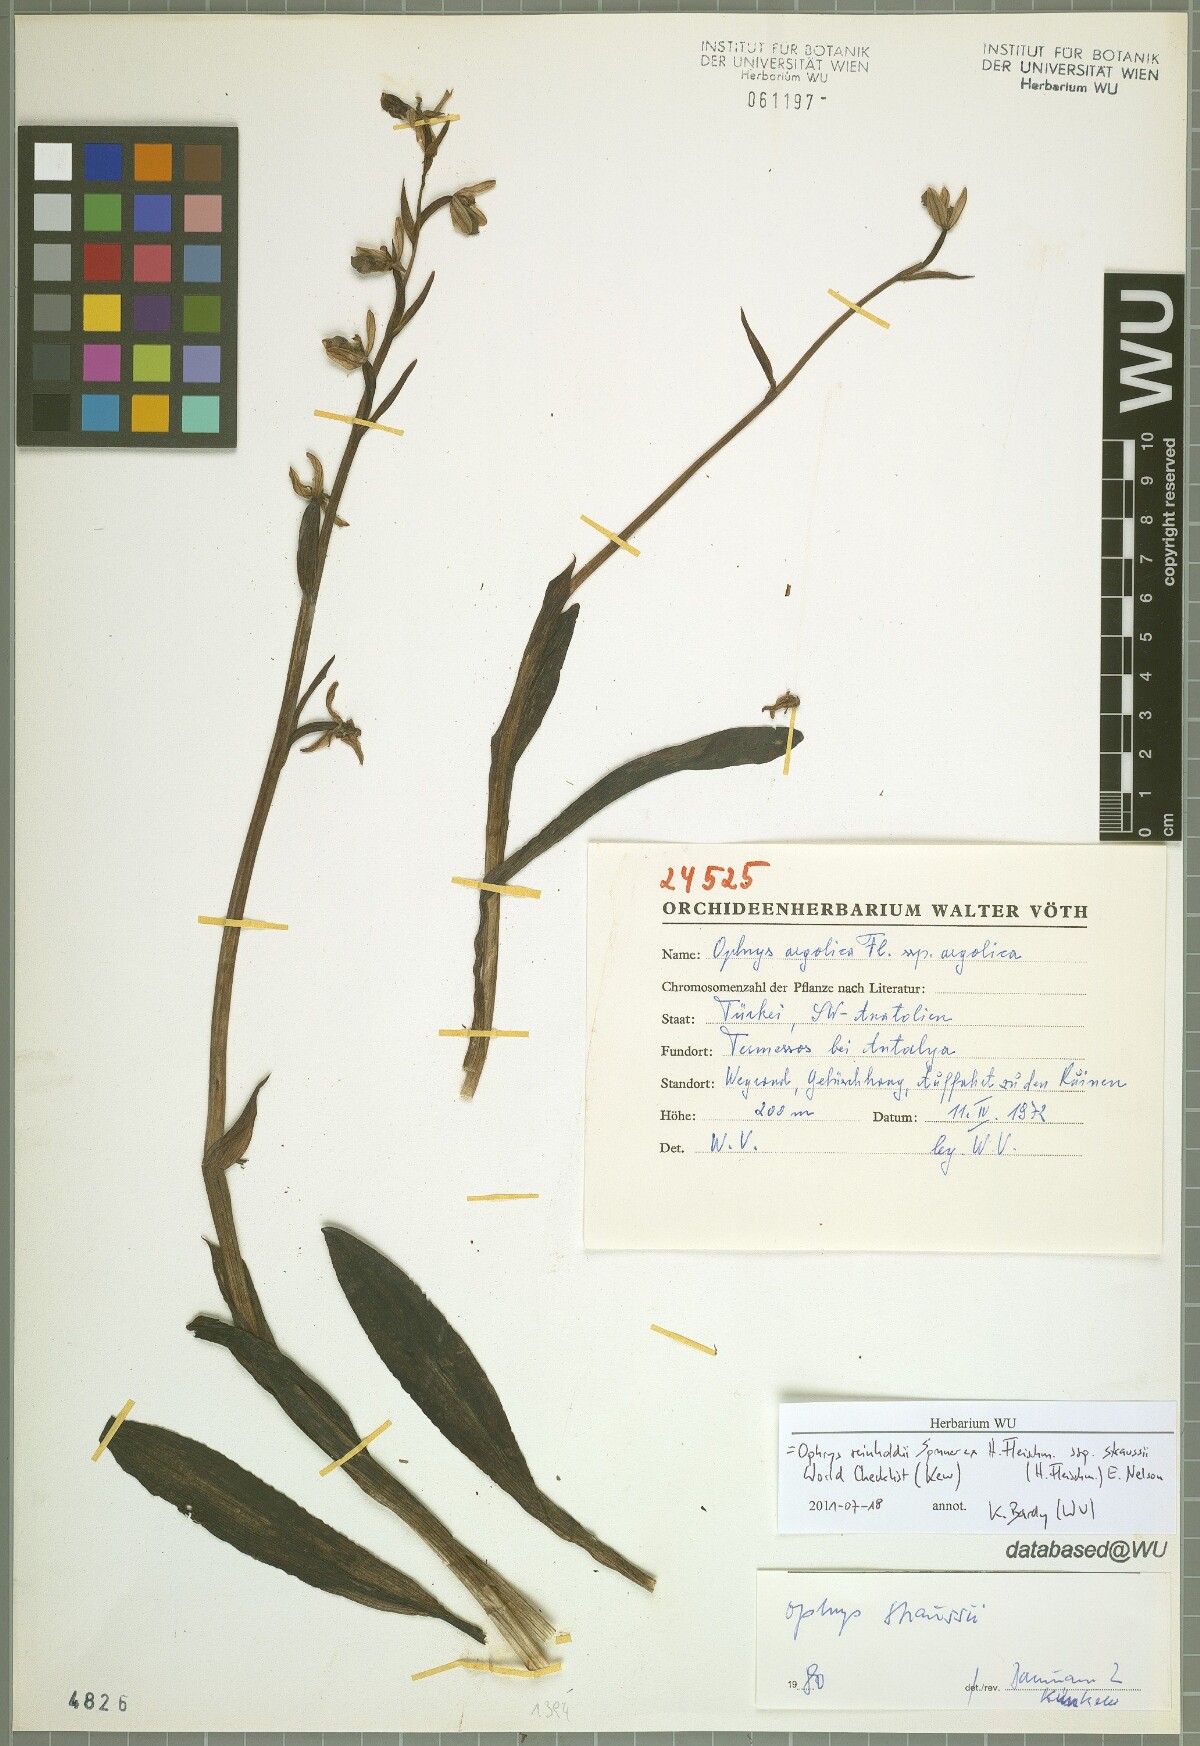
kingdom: Plantae
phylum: Tracheophyta
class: Liliopsida
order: Asparagales
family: Orchidaceae
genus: Ophrys
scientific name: Ophrys reinholdii
